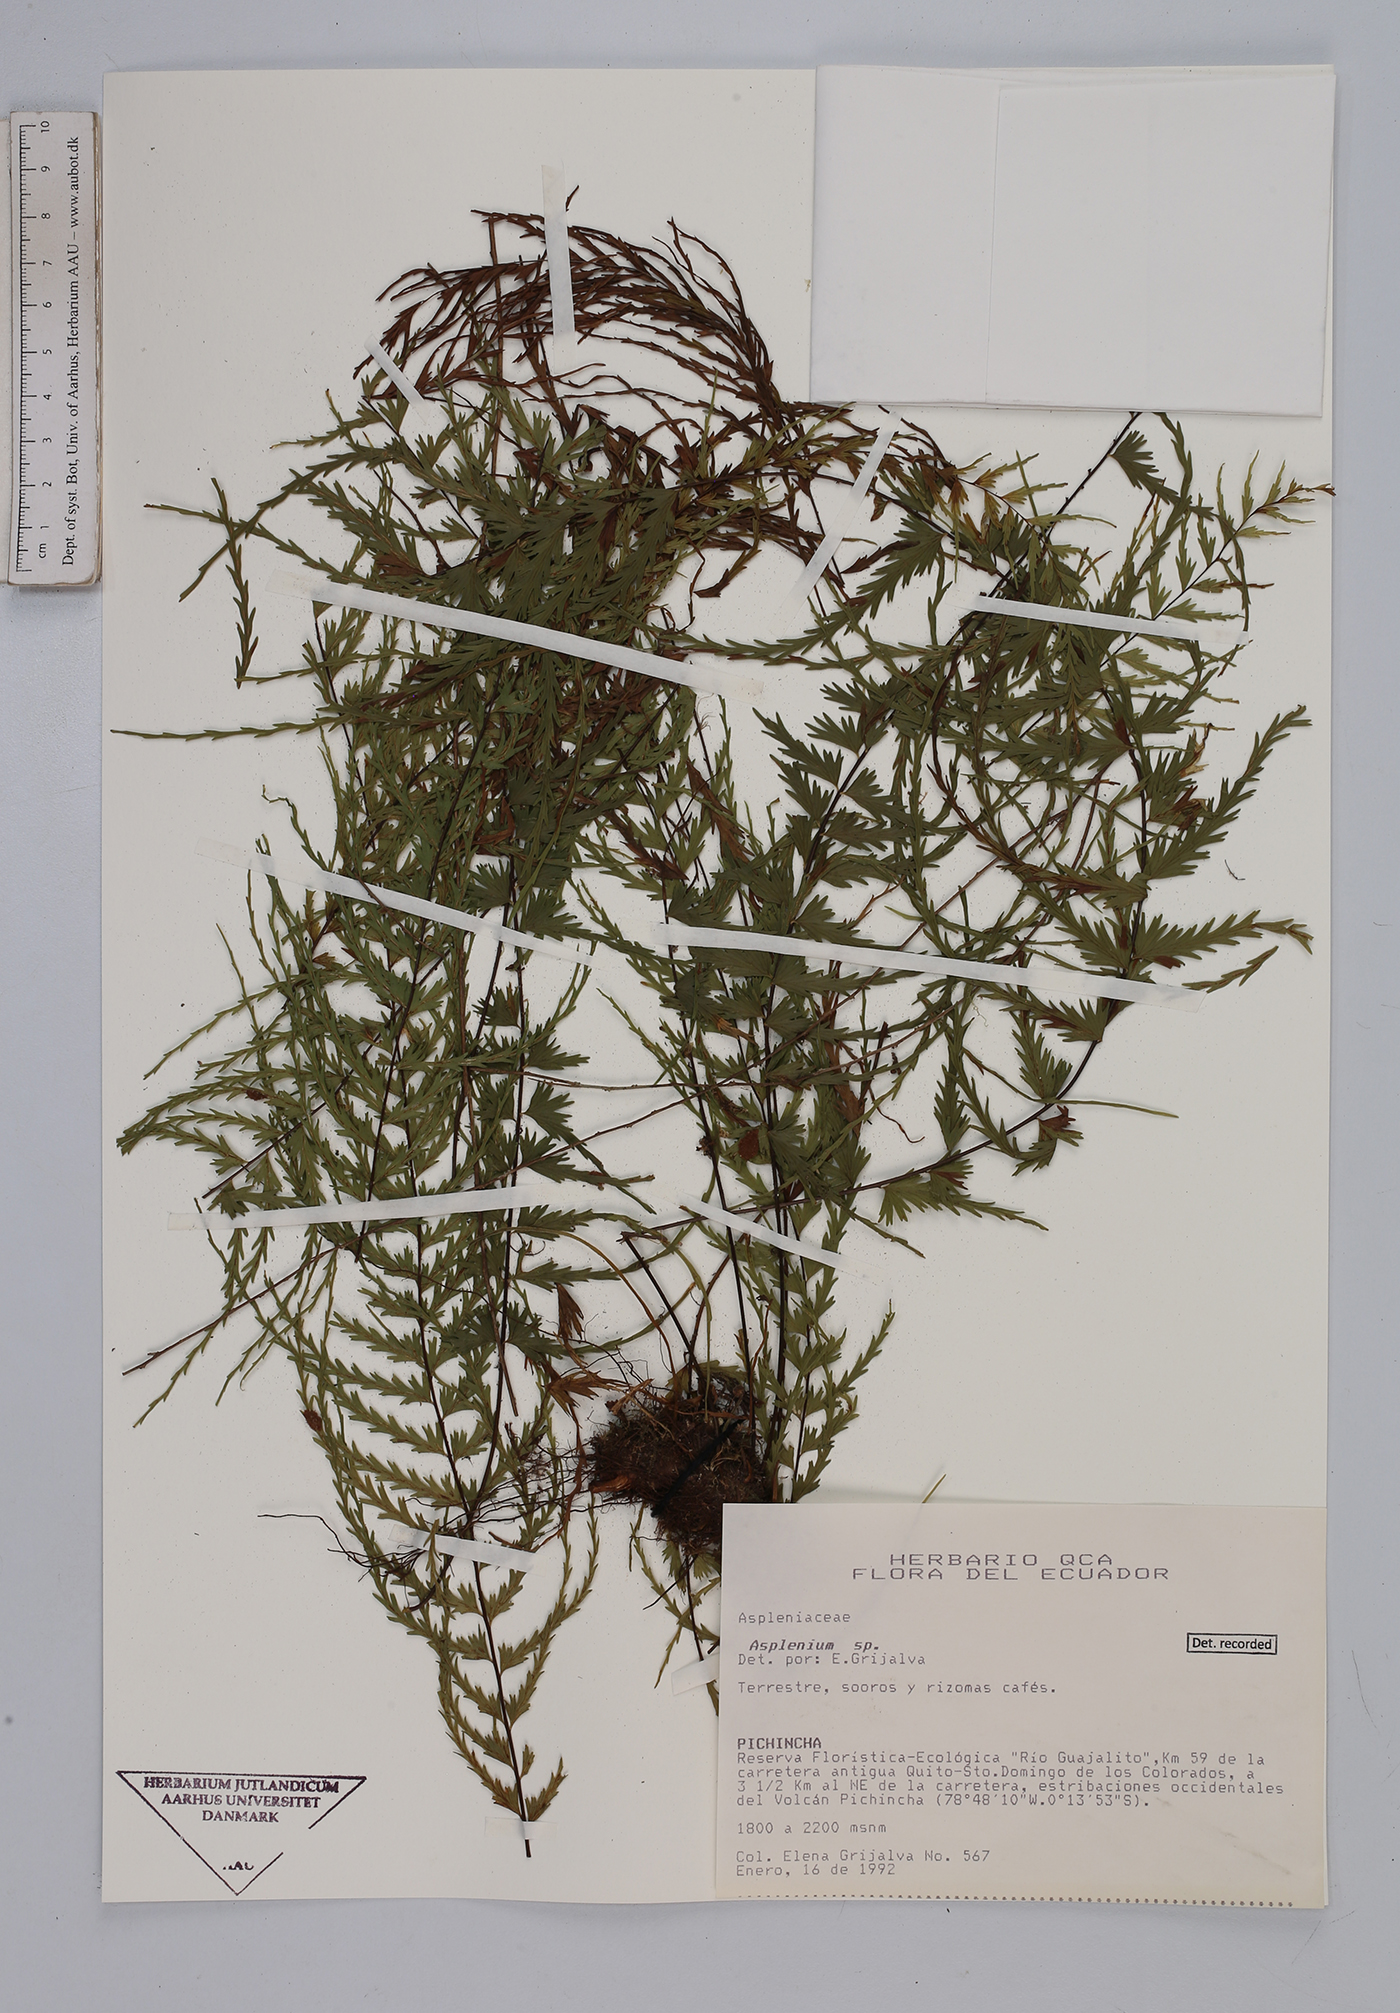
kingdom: Plantae
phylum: Tracheophyta
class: Polypodiopsida
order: Polypodiales
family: Aspleniaceae
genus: Asplenium
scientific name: Asplenium
